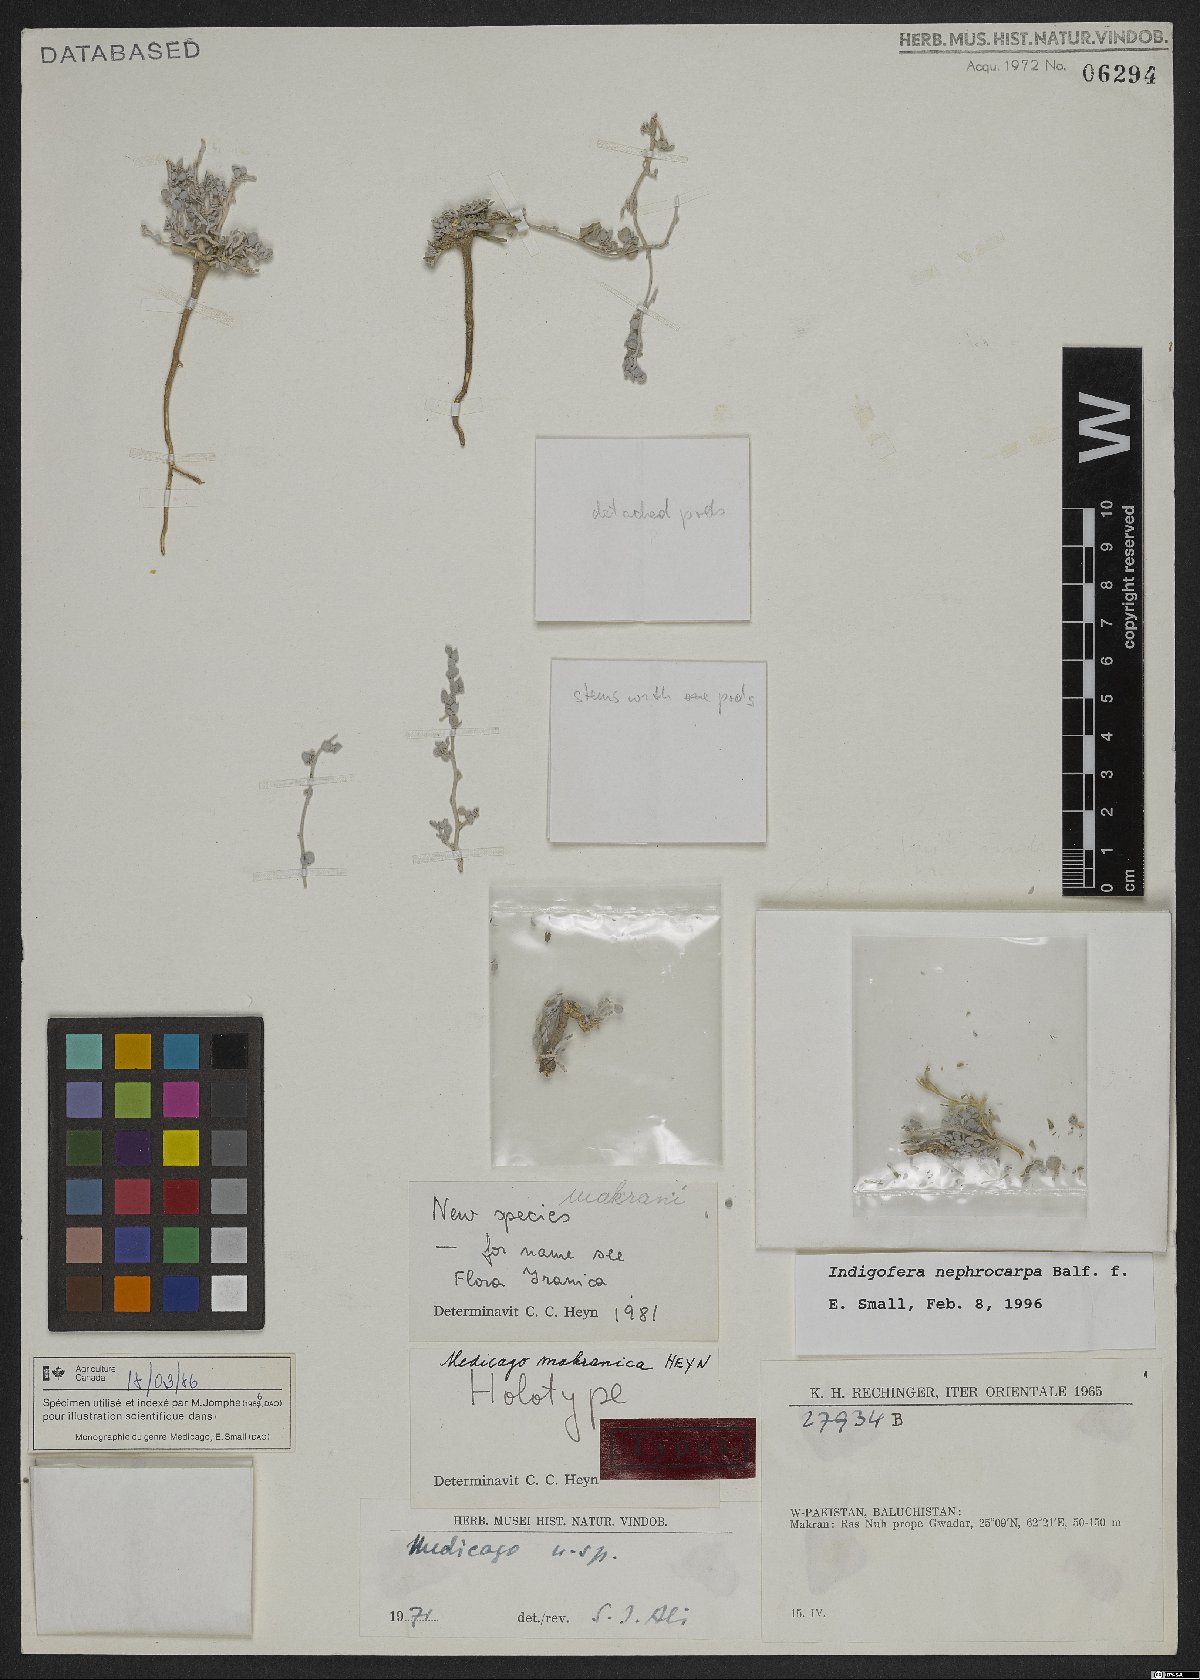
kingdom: Plantae
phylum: Tracheophyta
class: Magnoliopsida
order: Fabales
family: Fabaceae
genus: Indigofera
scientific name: Indigofera nephrocarpa
